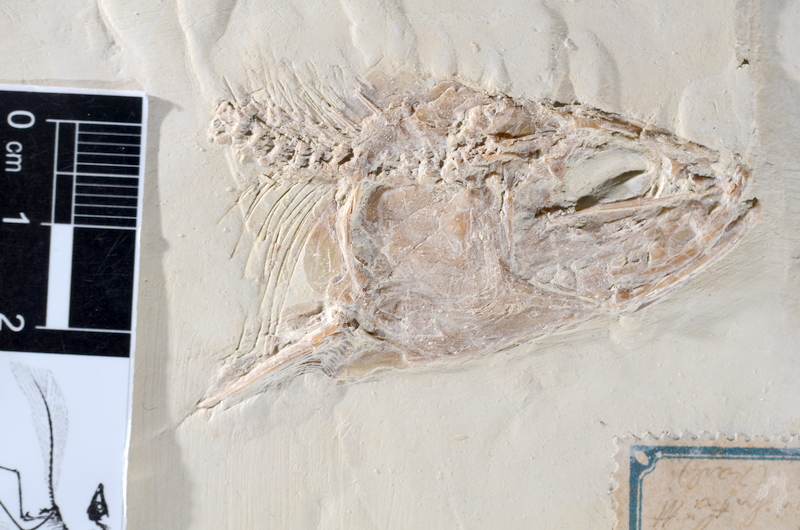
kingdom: Animalia
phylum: Chordata
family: Ascalaboidae
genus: Tharsis
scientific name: Tharsis dubius
